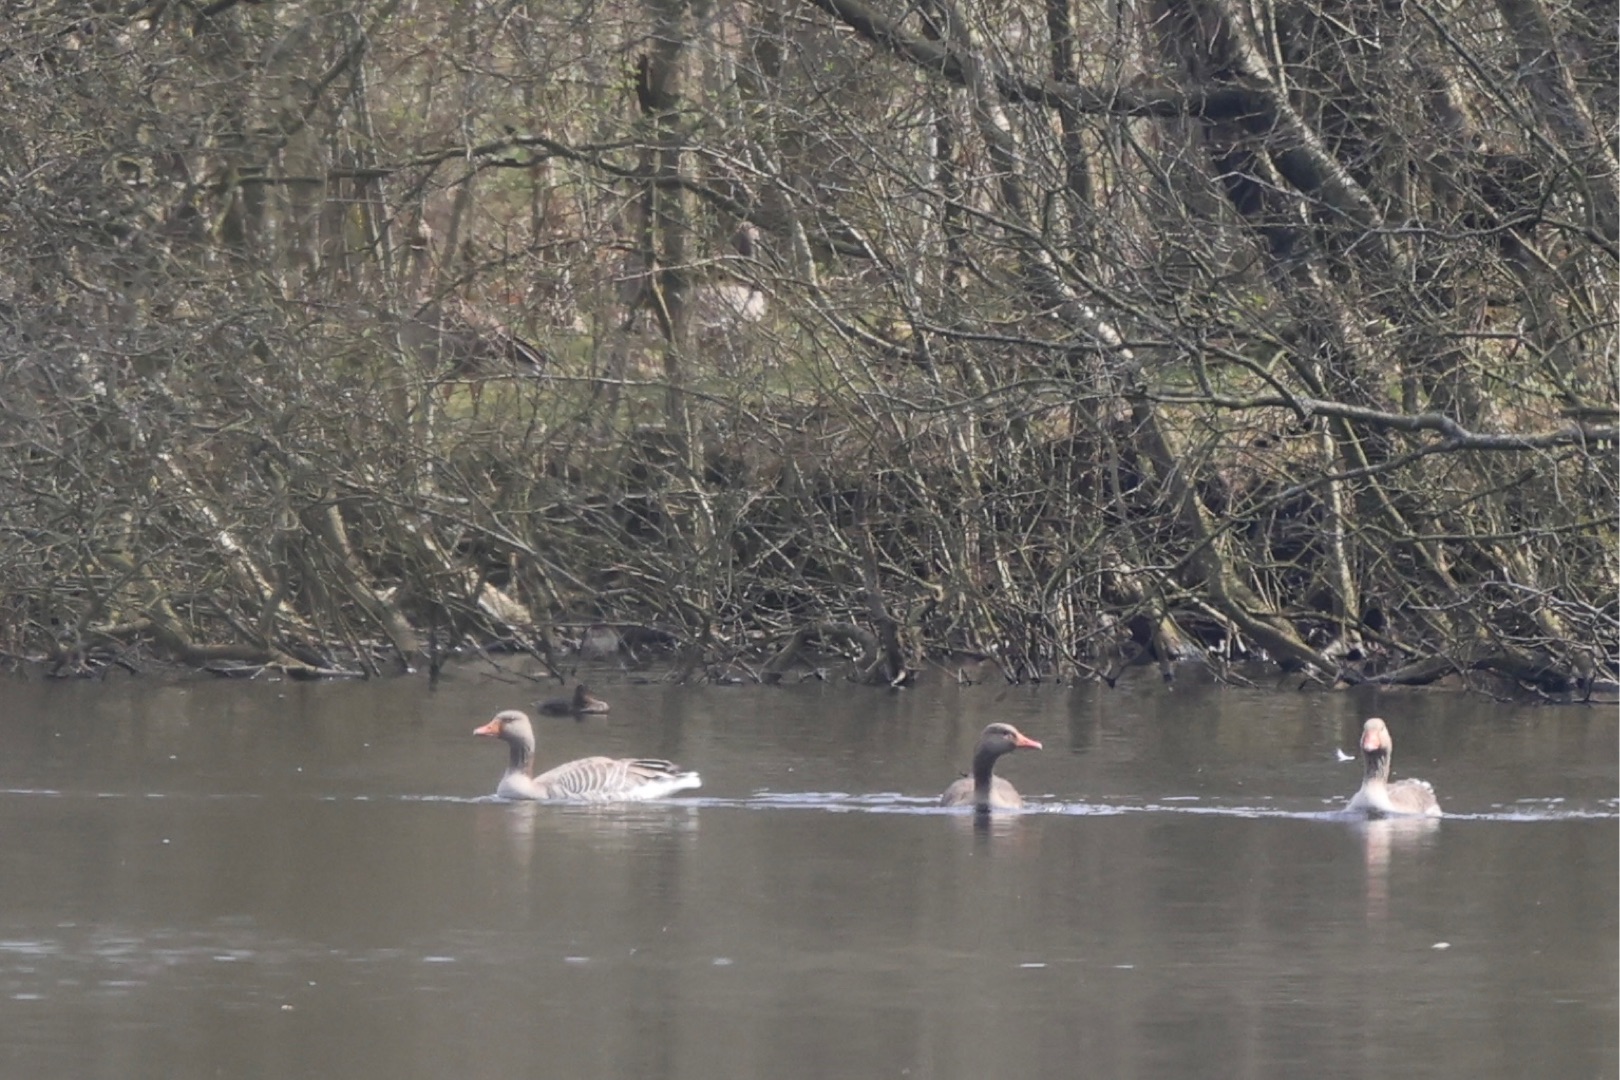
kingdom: Animalia
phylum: Chordata
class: Aves
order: Anseriformes
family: Anatidae
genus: Anser
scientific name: Anser anser
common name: Grågås
